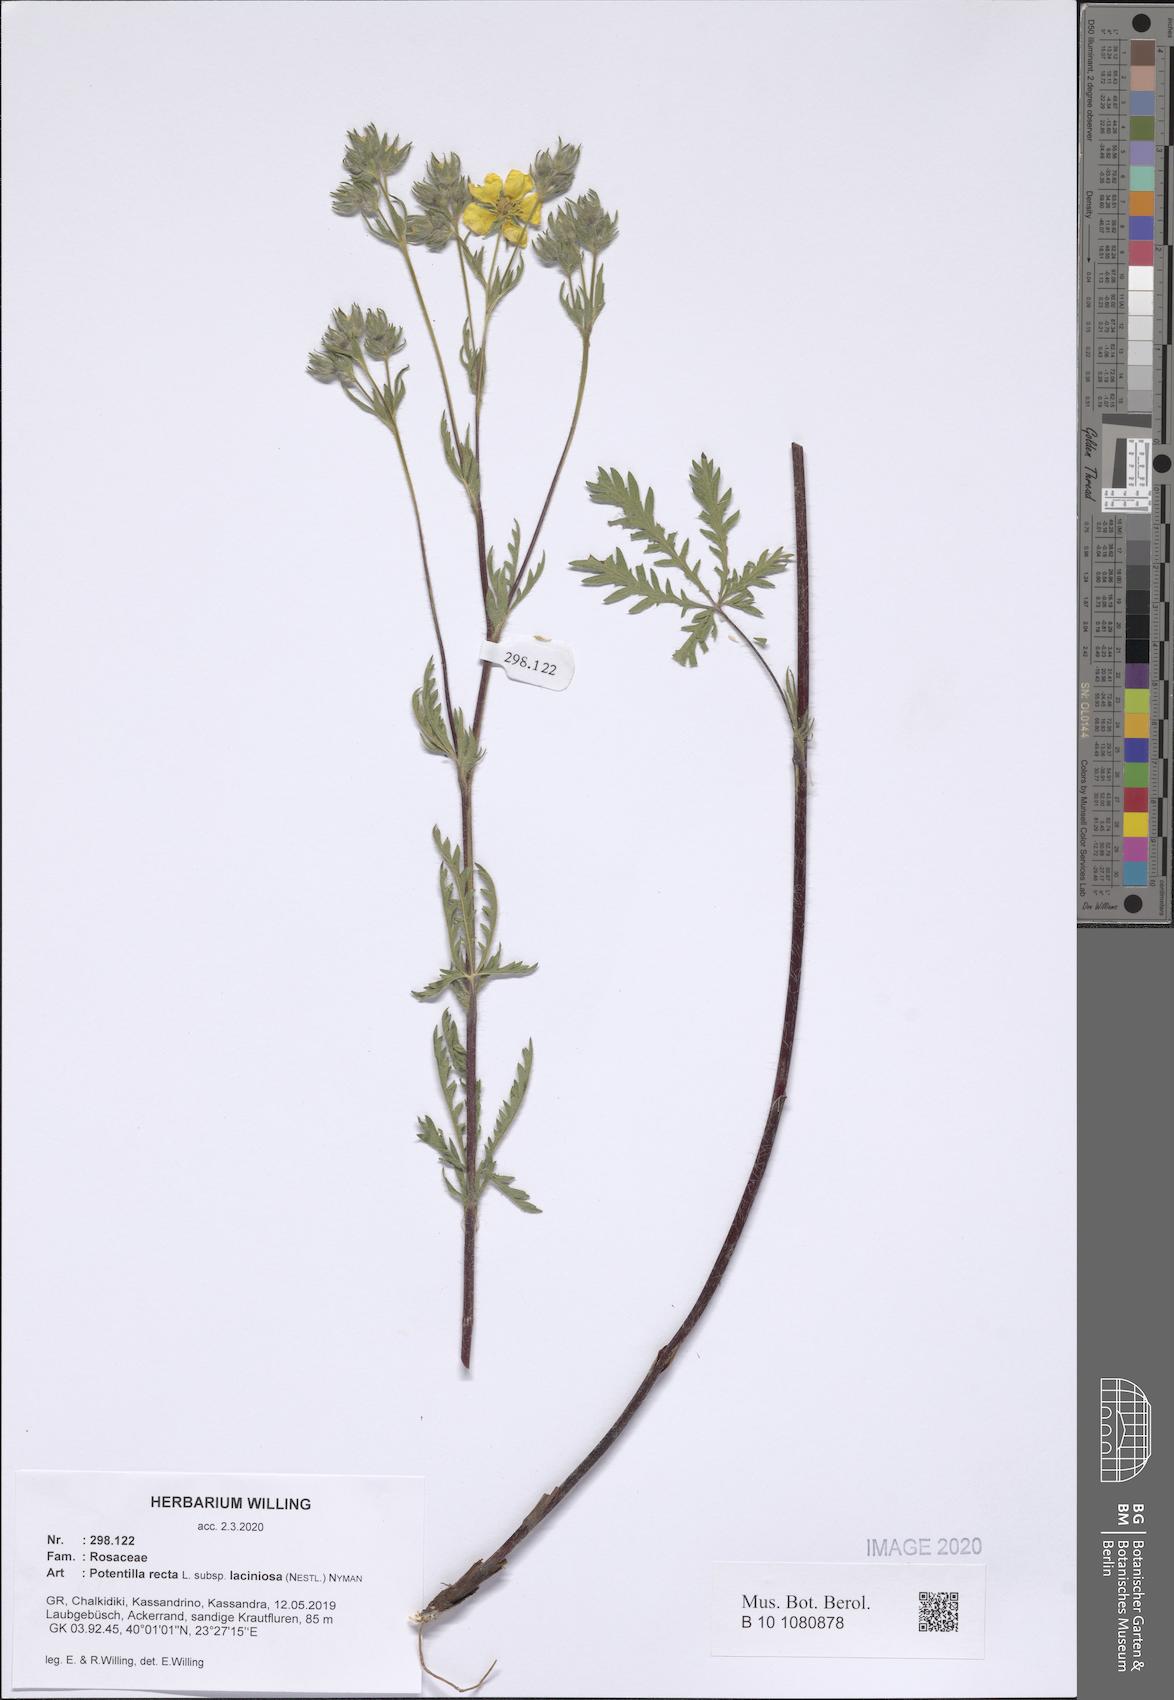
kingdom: Plantae
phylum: Tracheophyta
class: Magnoliopsida
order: Rosales
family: Rosaceae
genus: Potentilla
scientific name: Potentilla recta
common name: Sulphur cinquefoil
